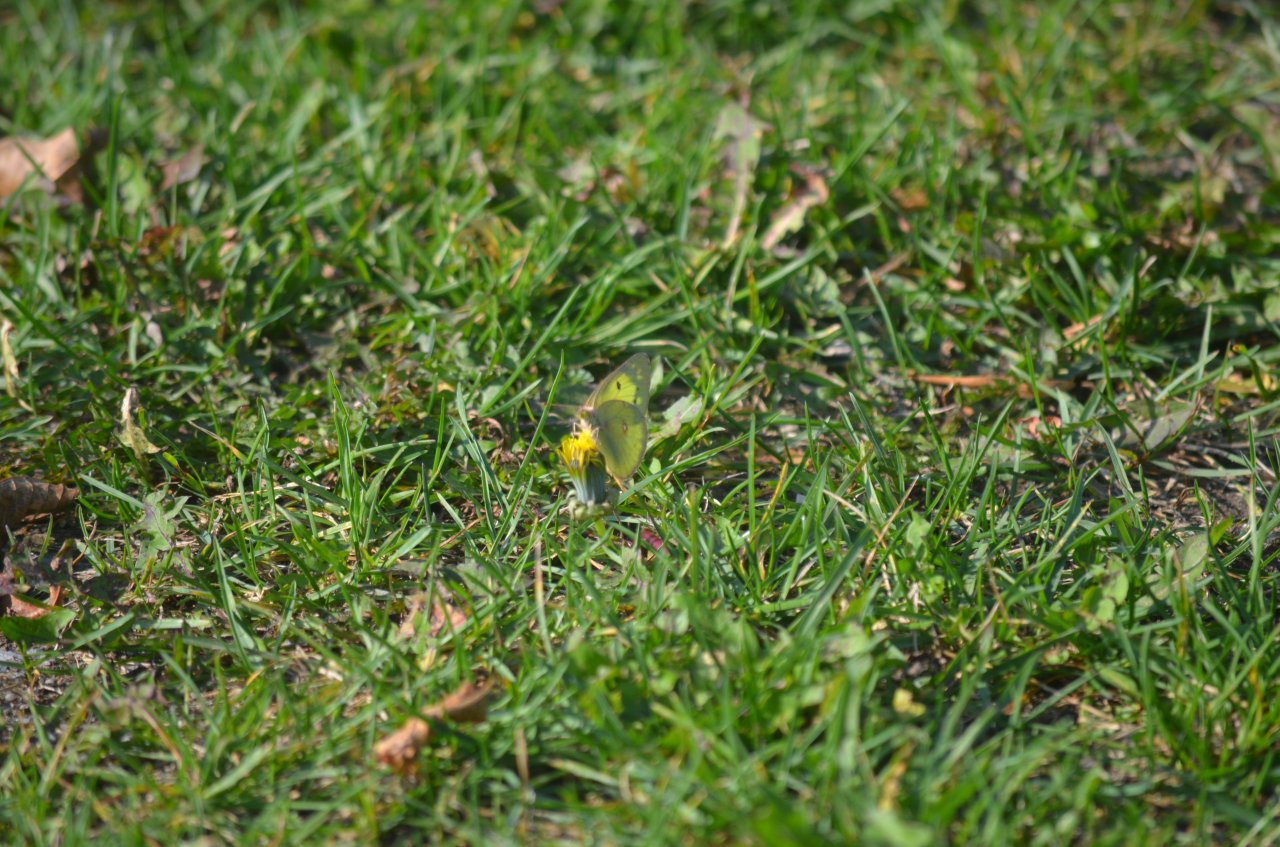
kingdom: Animalia
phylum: Arthropoda
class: Insecta
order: Lepidoptera
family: Pieridae
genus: Colias
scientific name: Colias philodice
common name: Clouded Sulphur
